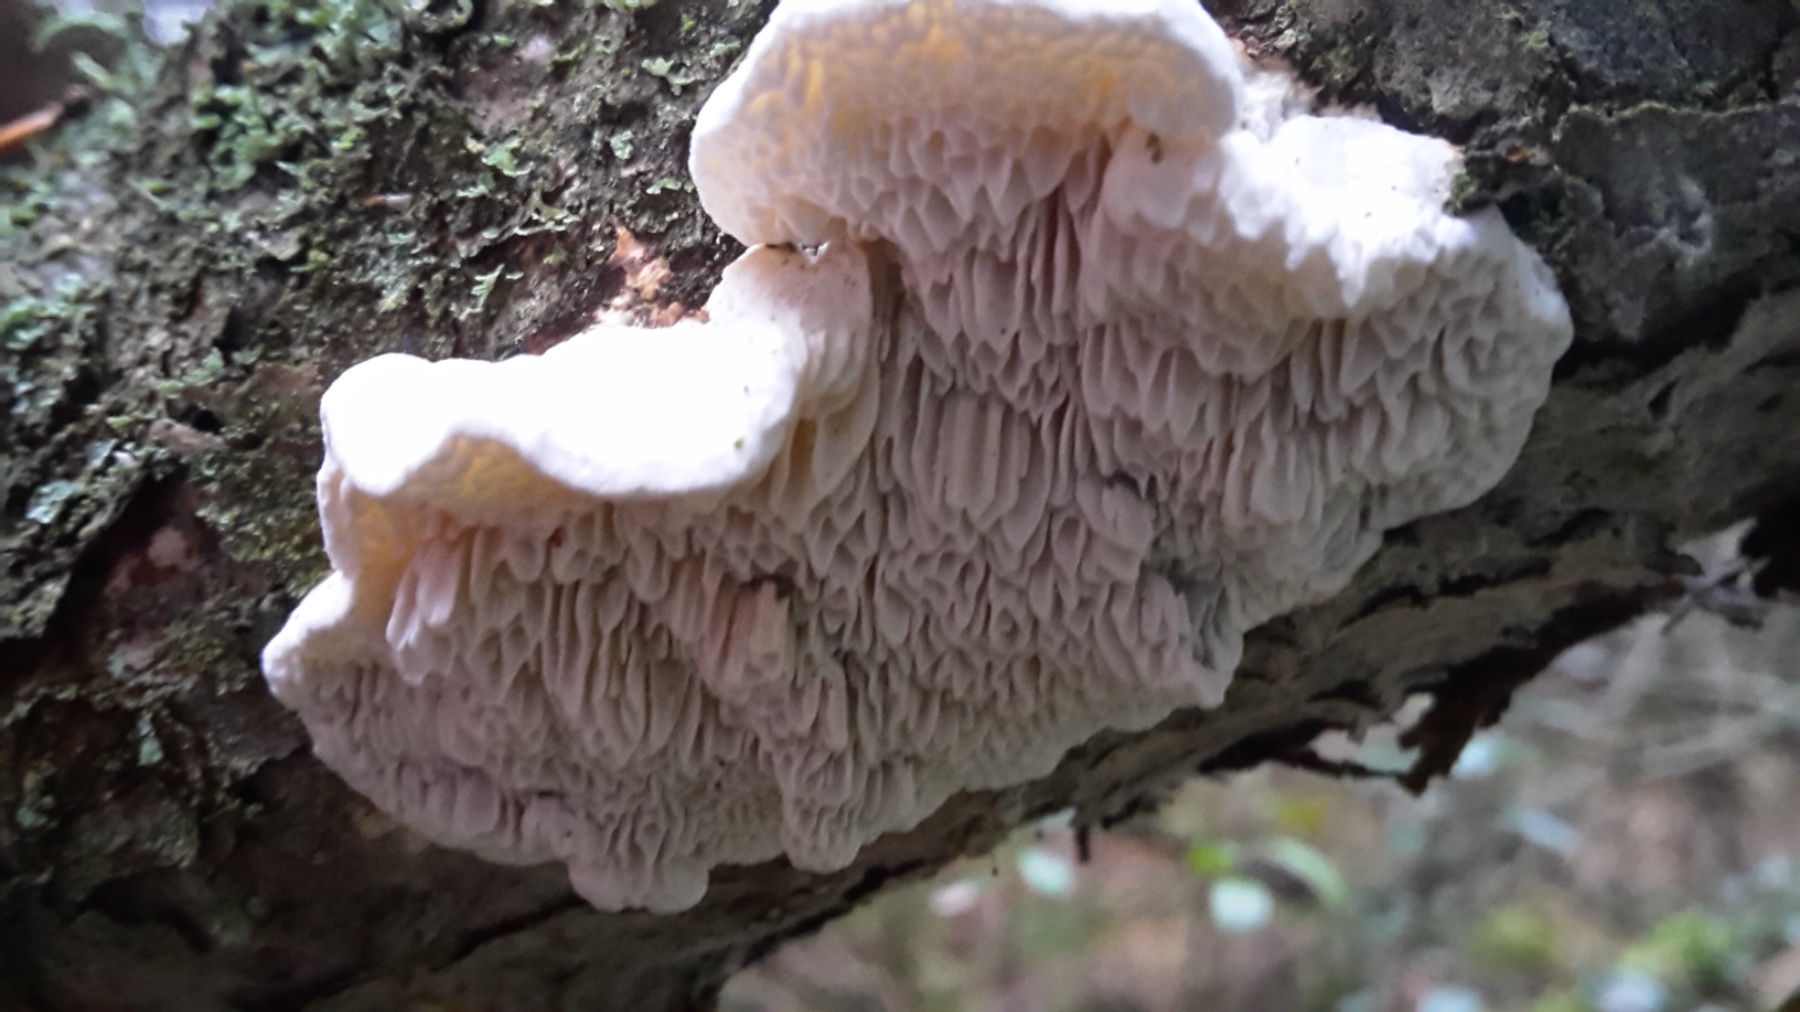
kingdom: Fungi
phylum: Basidiomycota
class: Agaricomycetes
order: Polyporales
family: Fomitopsidaceae
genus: Fomitopsis
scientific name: Fomitopsis
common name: fyrre-skiveporesvamp
